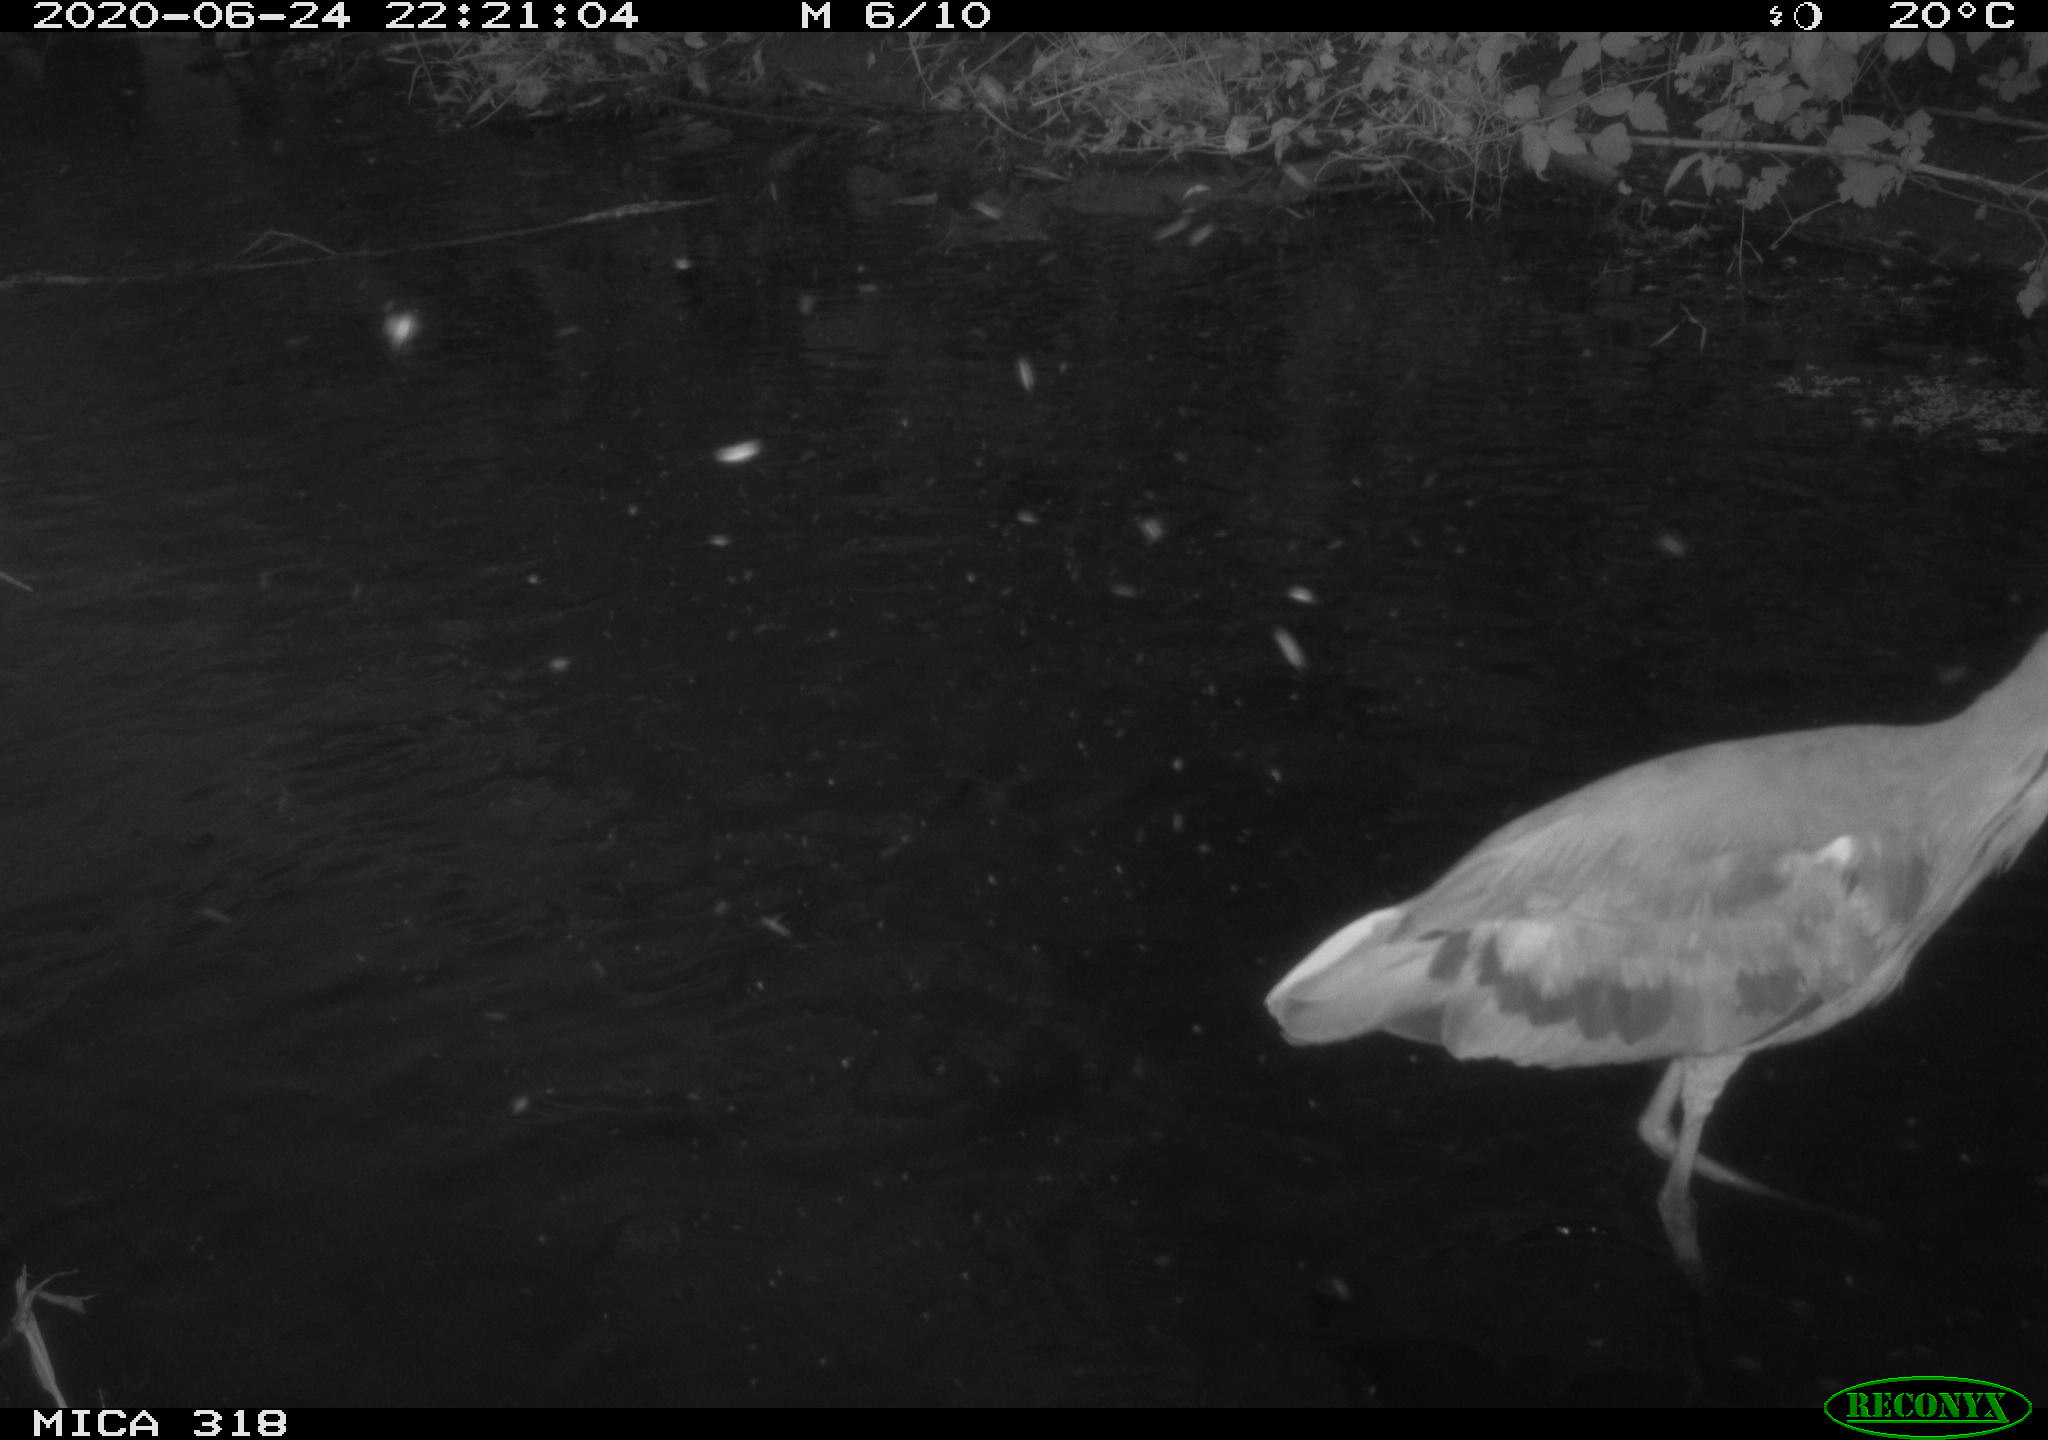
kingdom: Animalia
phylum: Chordata
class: Aves
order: Pelecaniformes
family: Ardeidae
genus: Ardea
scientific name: Ardea cinerea
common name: Grey heron
